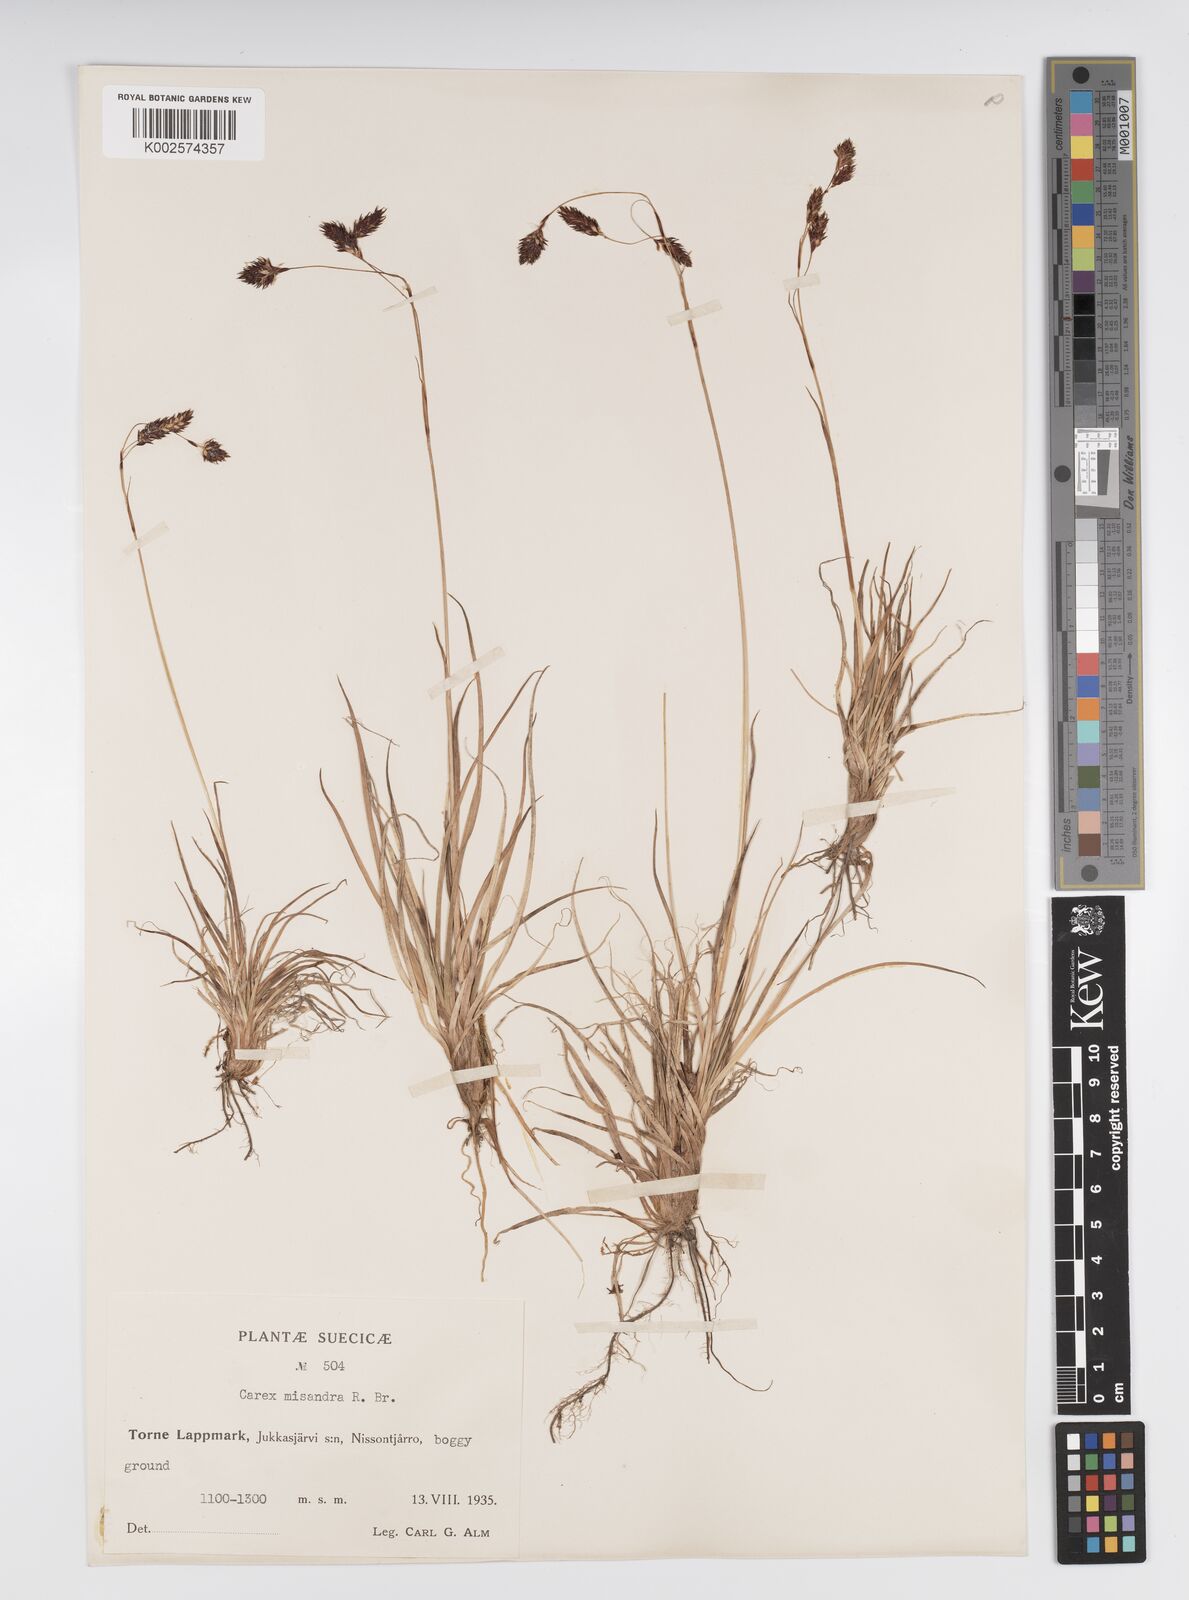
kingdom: Plantae
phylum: Tracheophyta
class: Liliopsida
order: Poales
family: Cyperaceae
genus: Carex
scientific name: Carex fuliginosa
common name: Few-flowered sedge
